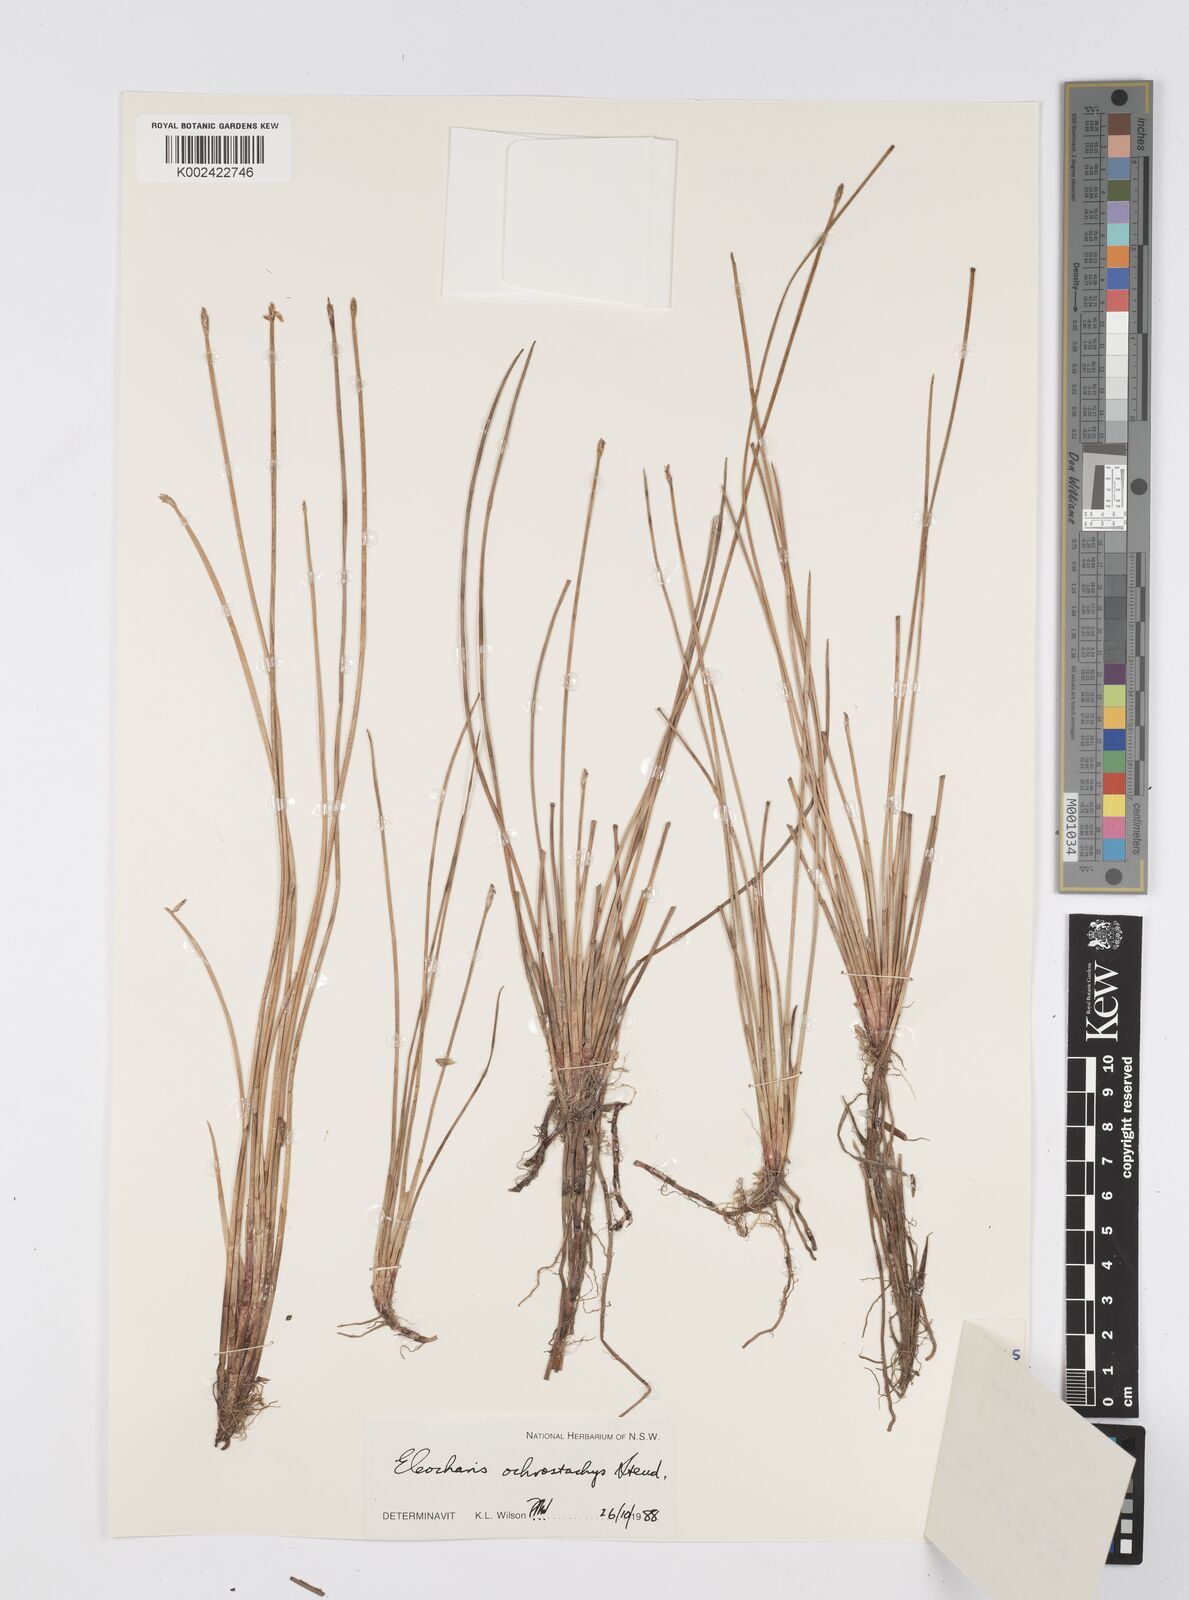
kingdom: Plantae
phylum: Tracheophyta
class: Liliopsida
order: Poales
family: Cyperaceae
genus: Eleocharis
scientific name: Eleocharis ochrostachys
